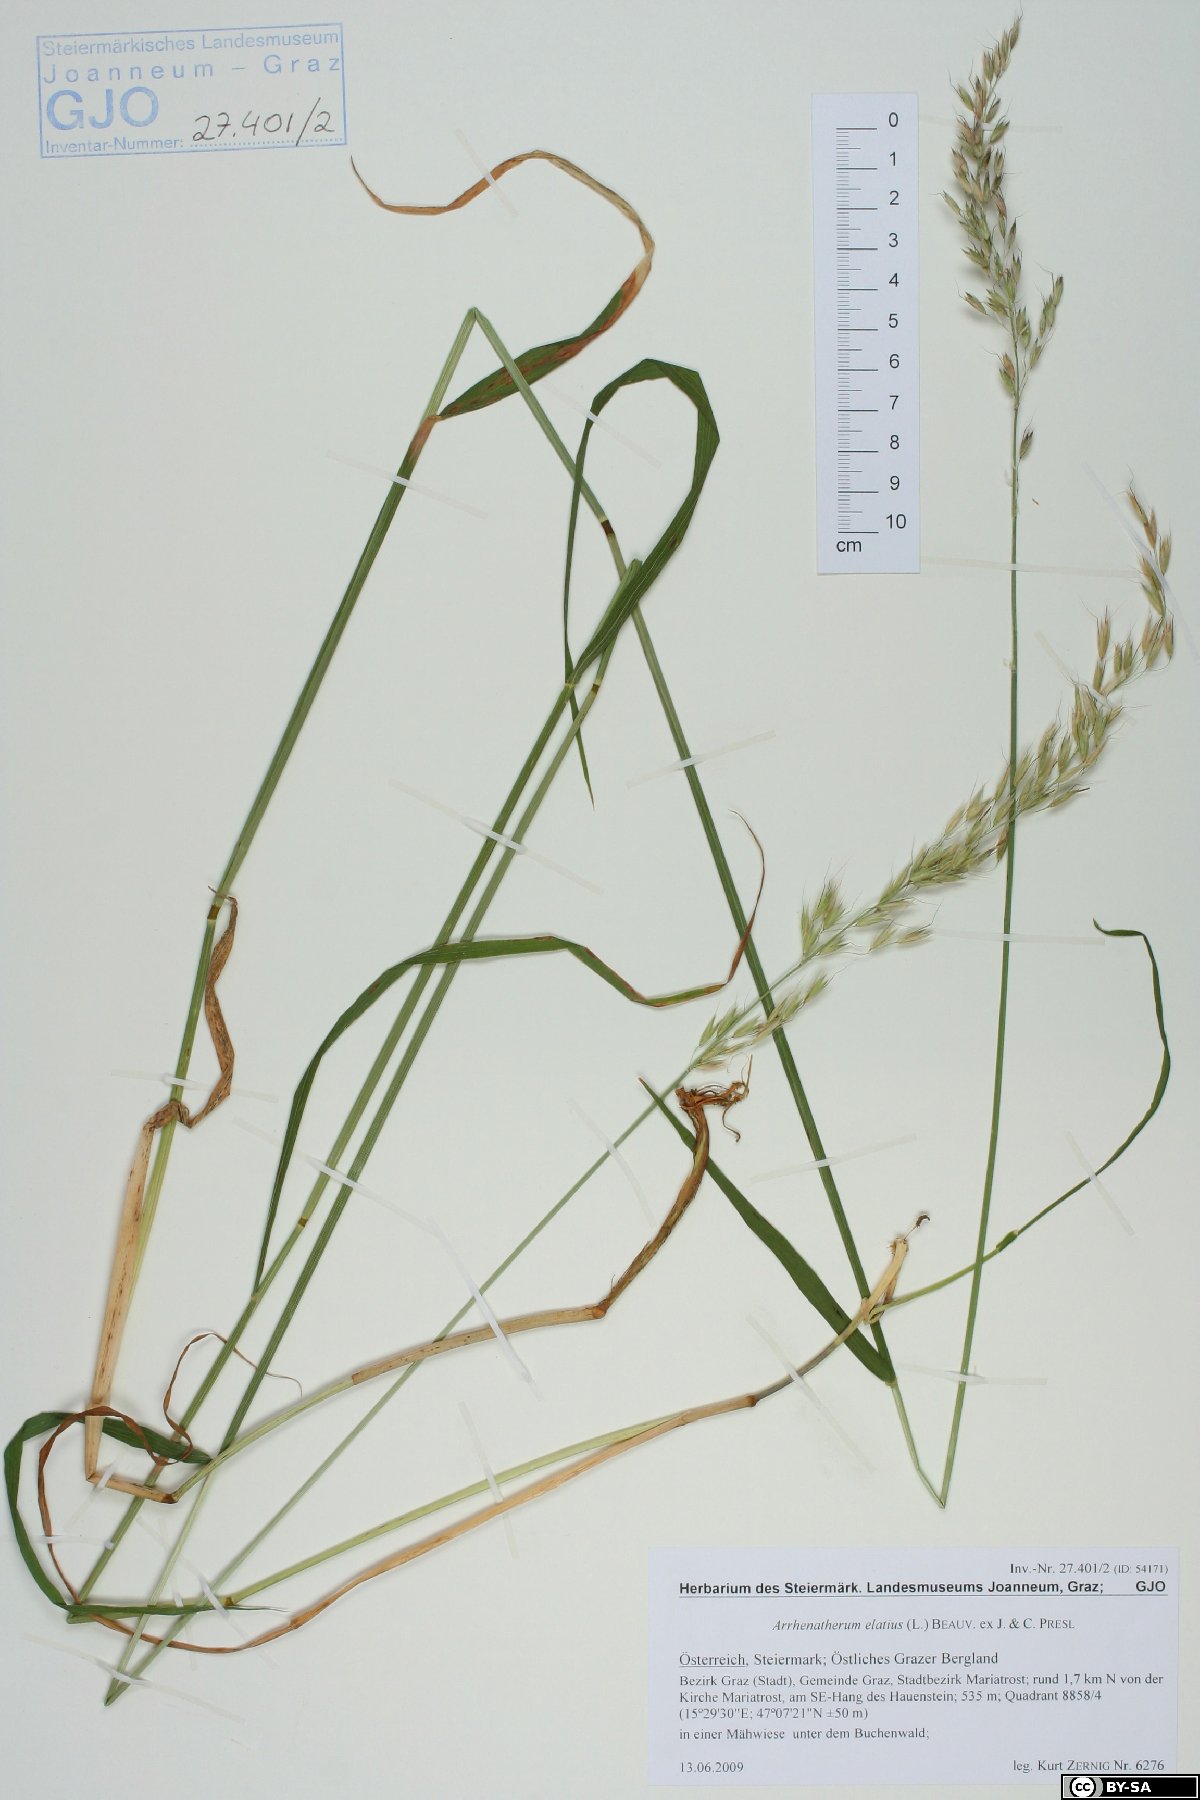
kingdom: Plantae
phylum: Tracheophyta
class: Liliopsida
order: Poales
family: Poaceae
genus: Arrhenatherum
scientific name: Arrhenatherum elatius
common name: Tall oatgrass
